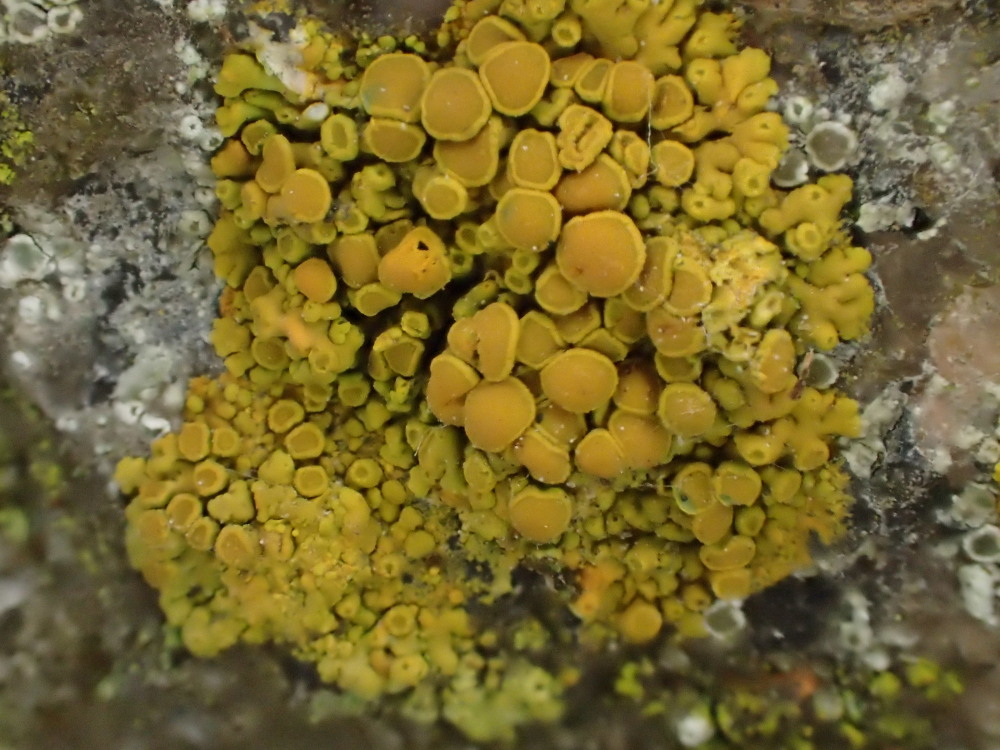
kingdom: Fungi
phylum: Ascomycota
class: Lecanoromycetes
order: Teloschistales
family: Teloschistaceae
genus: Calogaya
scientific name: Calogaya saxicola
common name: mur-orangelav
